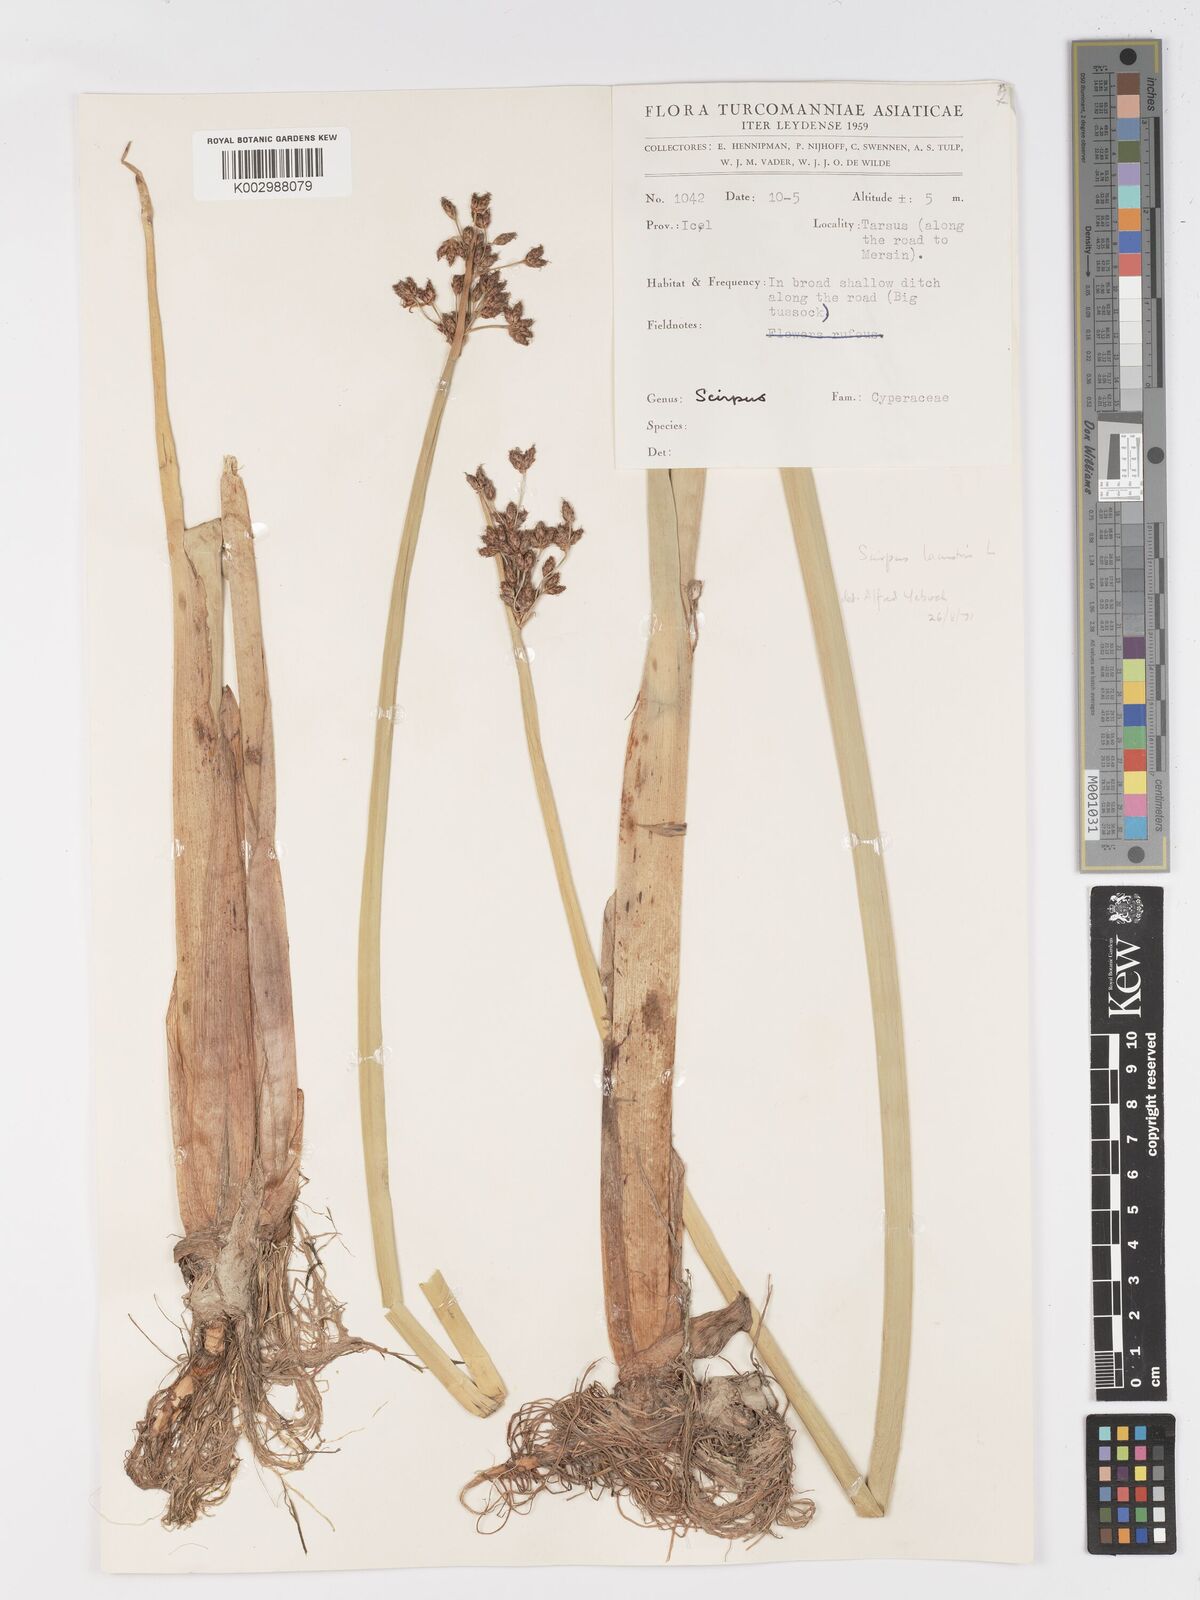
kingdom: Plantae
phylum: Tracheophyta
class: Liliopsida
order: Poales
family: Cyperaceae
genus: Schoenoplectus
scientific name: Schoenoplectus
